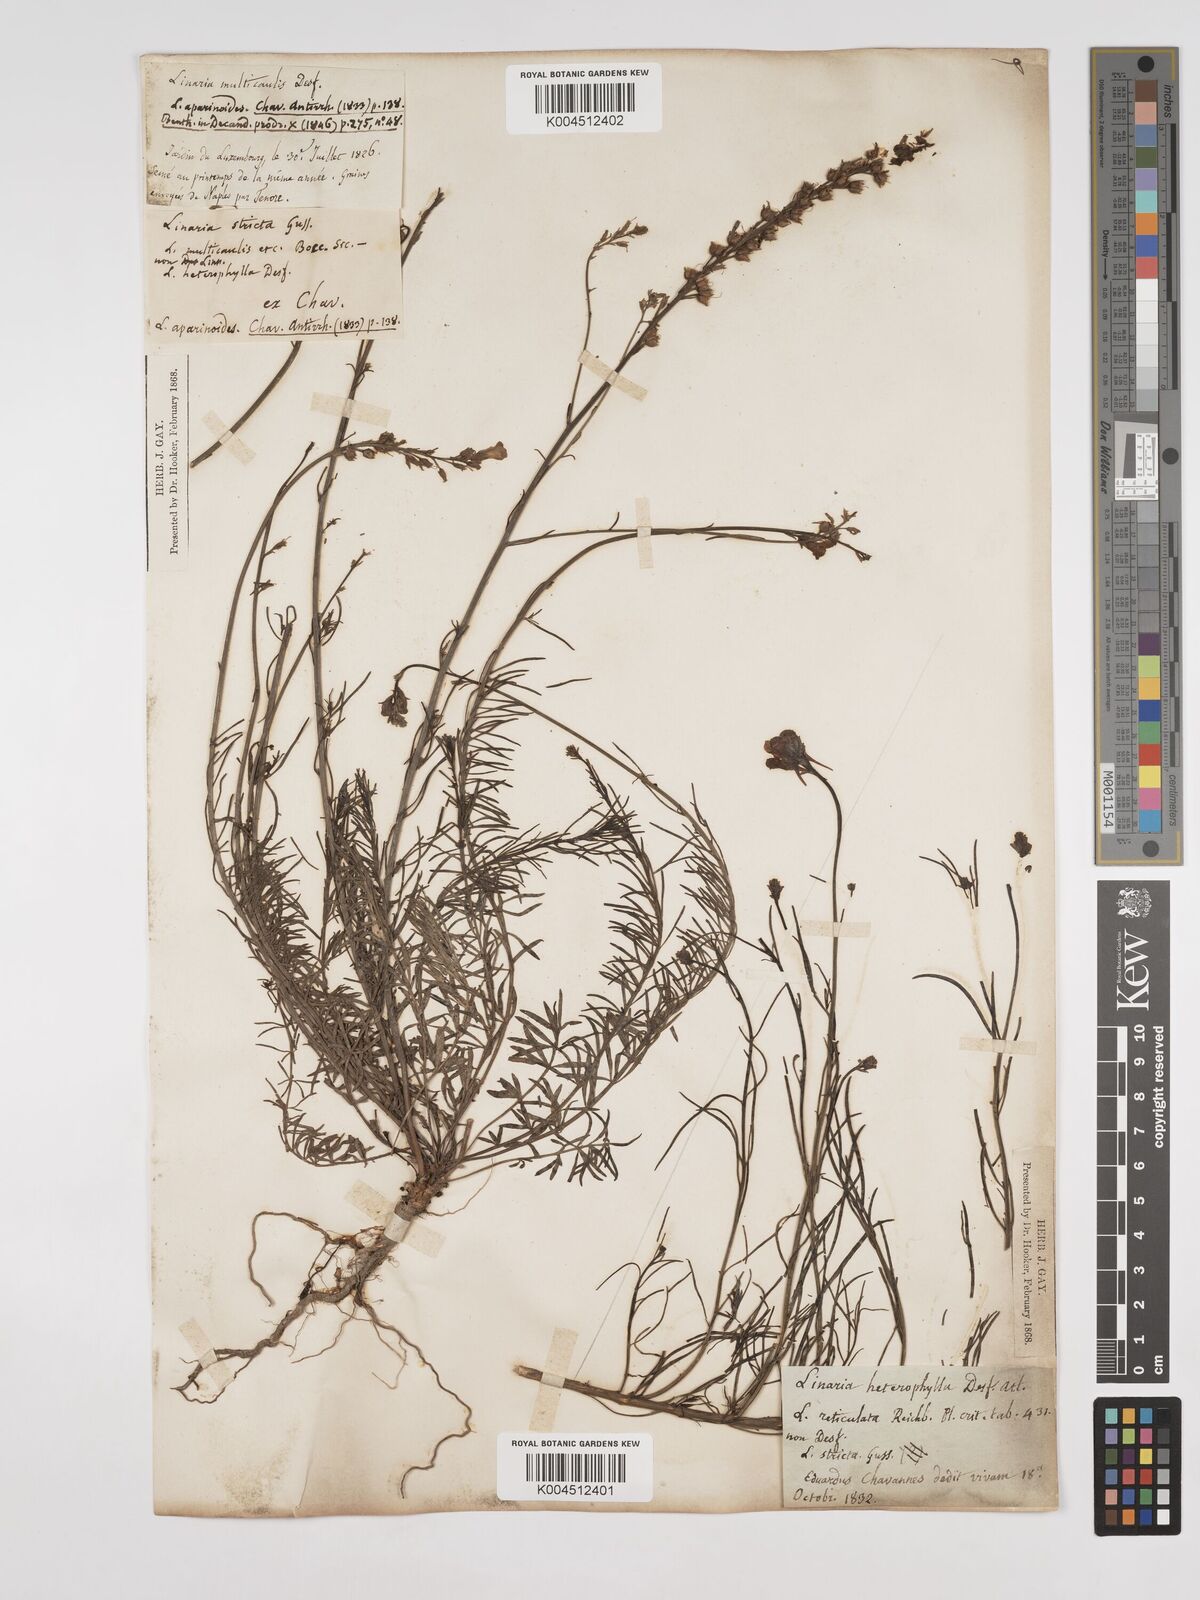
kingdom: Plantae
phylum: Tracheophyta
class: Magnoliopsida
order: Lamiales
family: Plantaginaceae
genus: Linaria
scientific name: Linaria multicaulis
